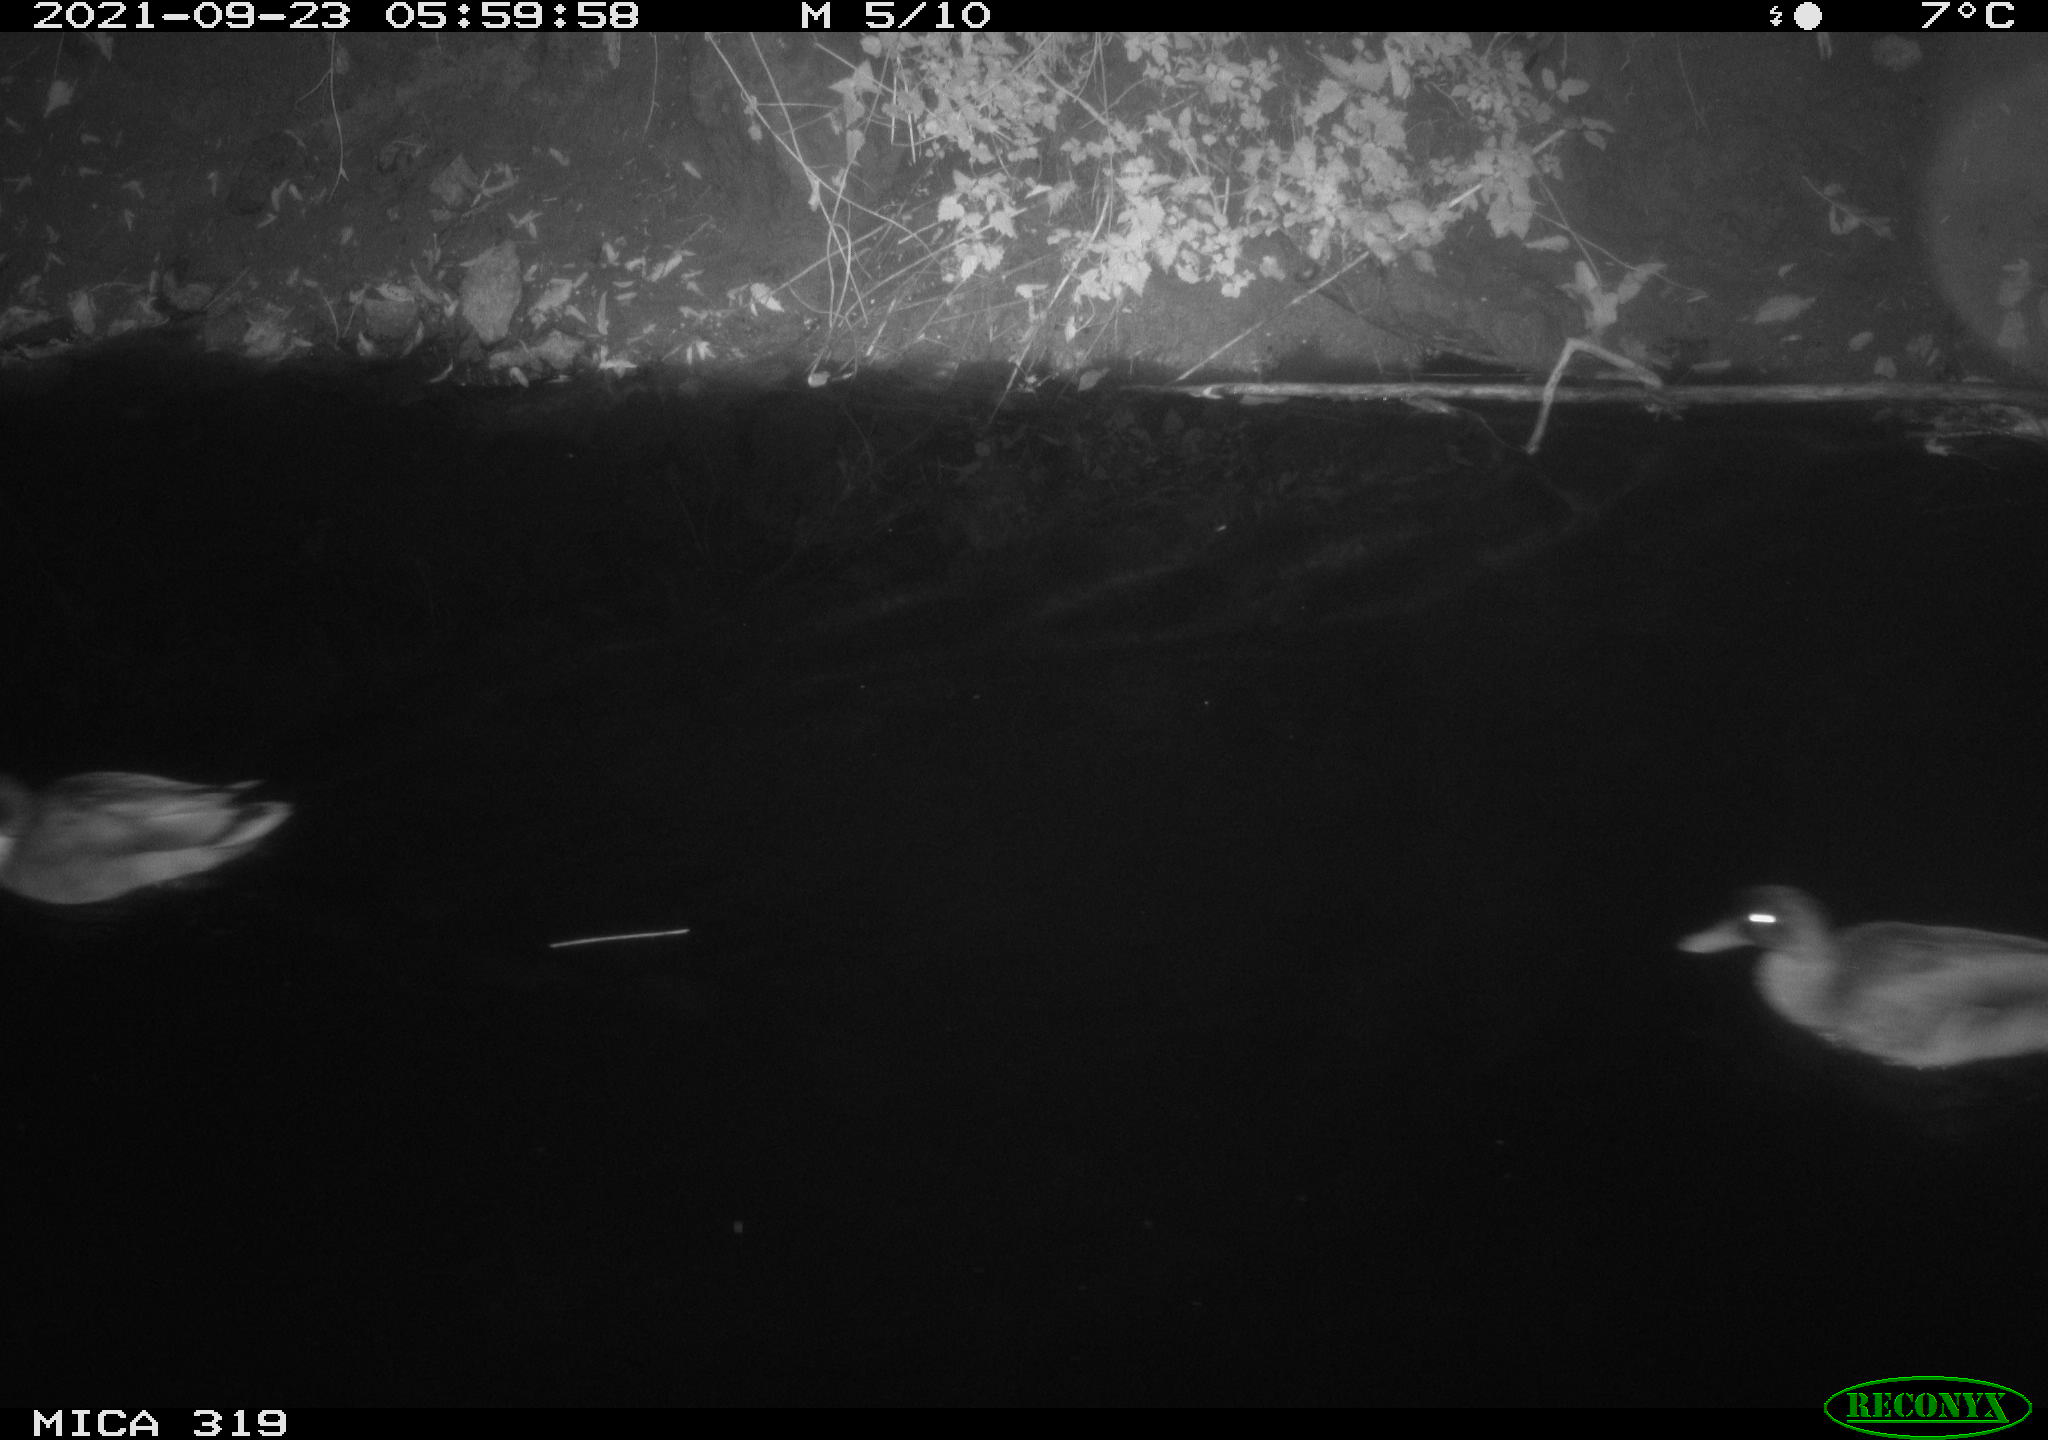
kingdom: Animalia
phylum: Chordata
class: Aves
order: Anseriformes
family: Anatidae
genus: Anas
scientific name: Anas platyrhynchos
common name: Mallard
